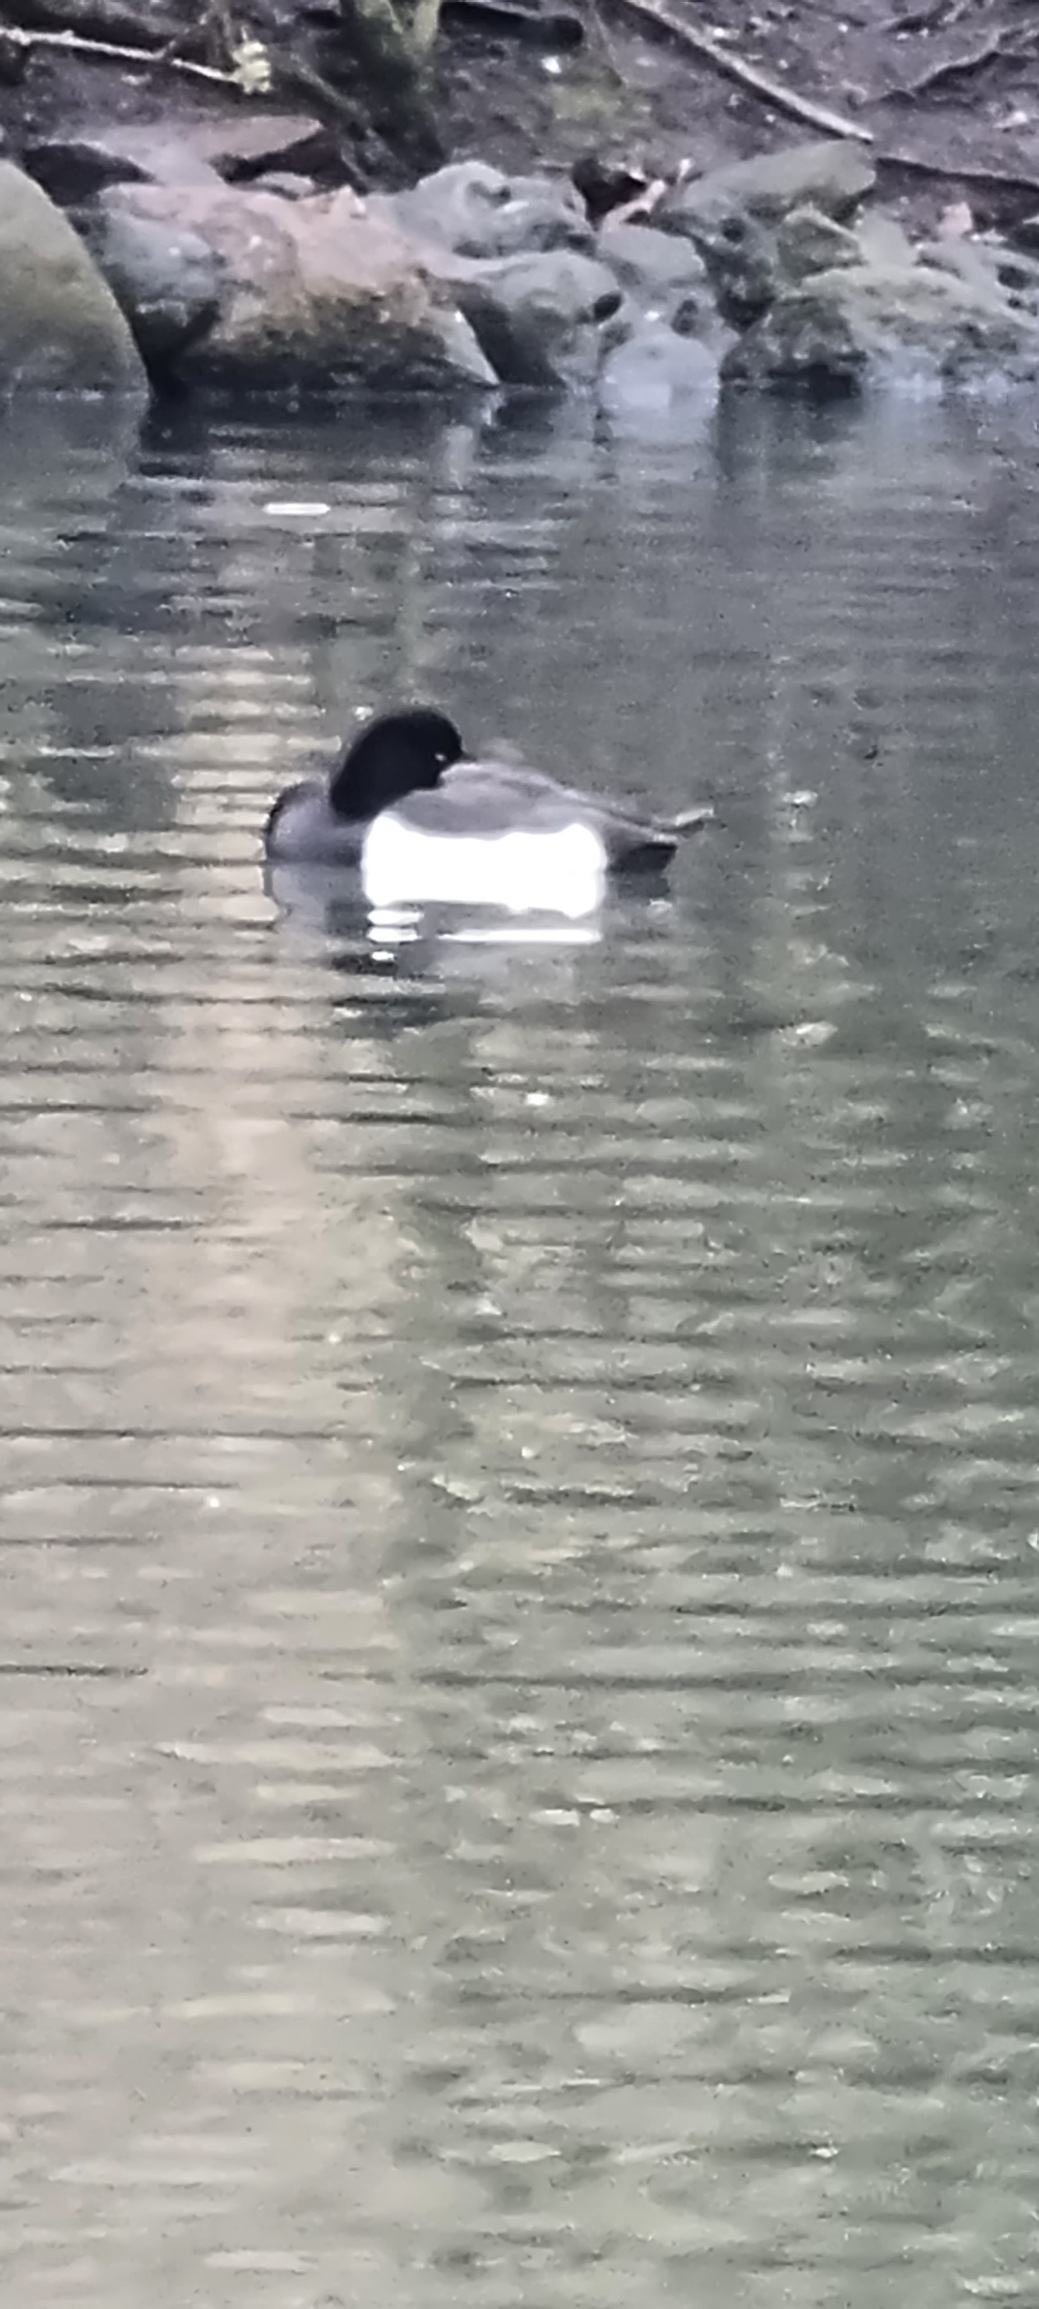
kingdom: Animalia
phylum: Chordata
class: Aves
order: Anseriformes
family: Anatidae
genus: Aythya
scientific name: Aythya fuligula
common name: Troldand
